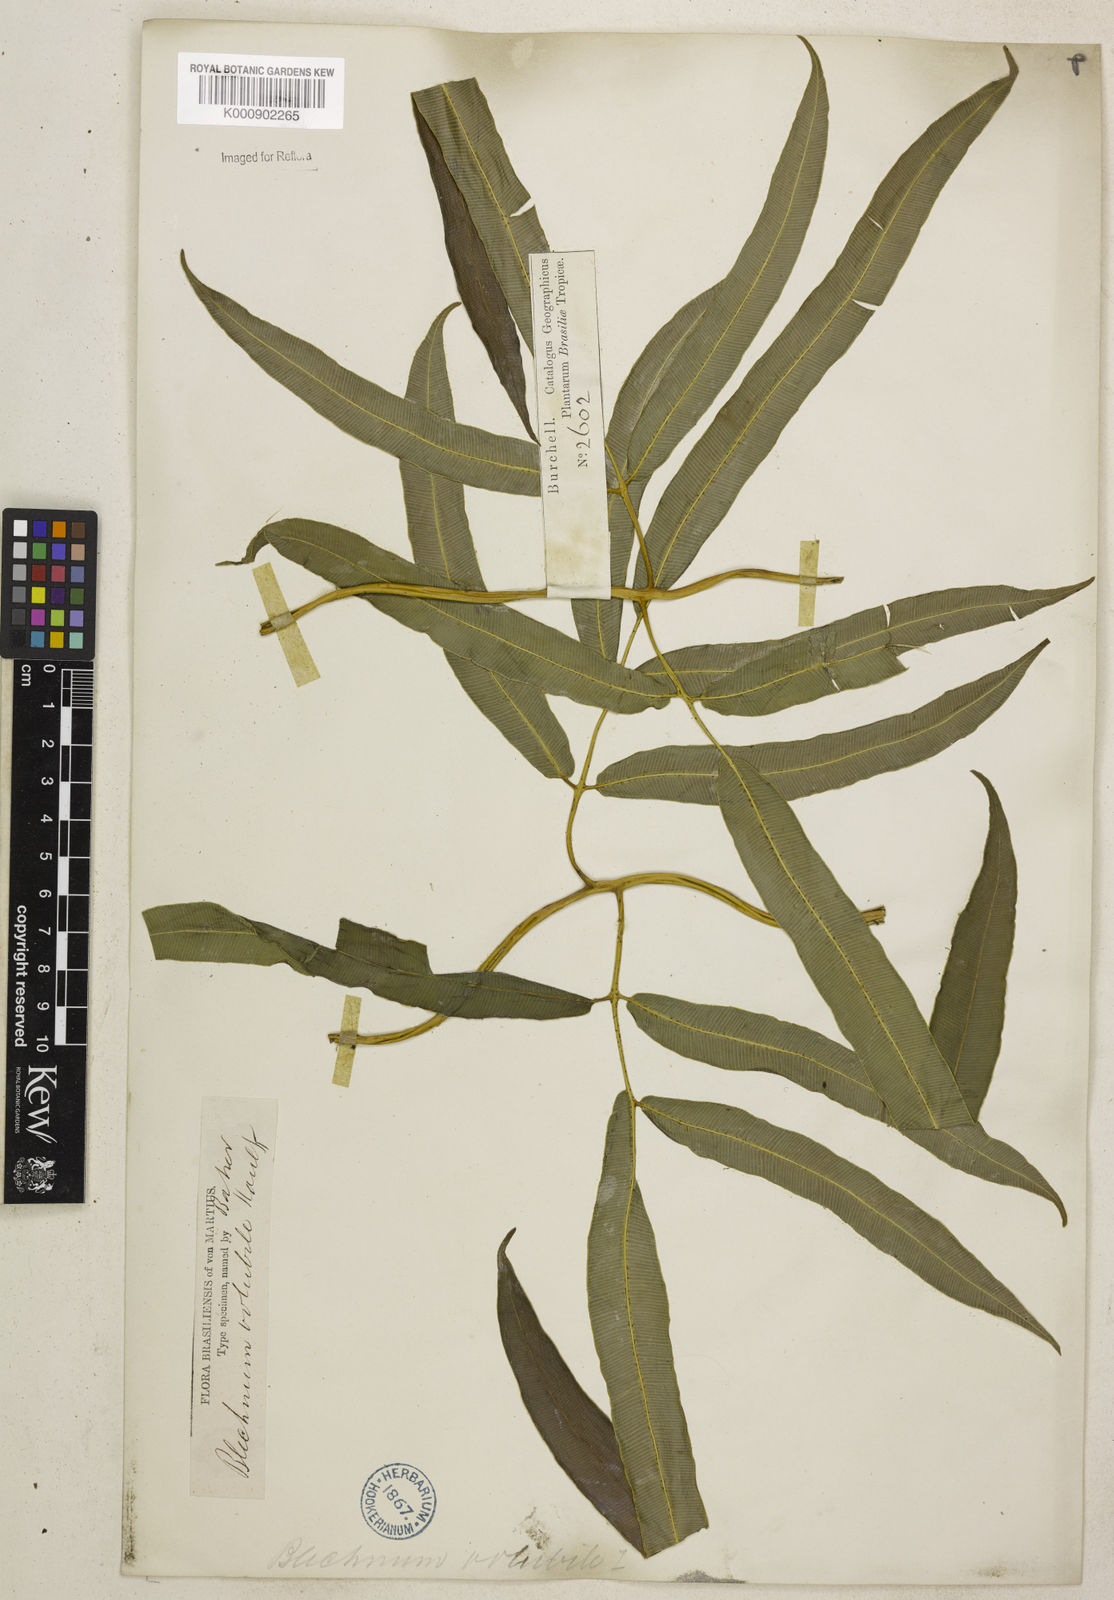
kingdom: Plantae
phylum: Tracheophyta
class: Polypodiopsida
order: Polypodiales
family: Blechnaceae
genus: Salpichlaena
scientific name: Salpichlaena volubilis
